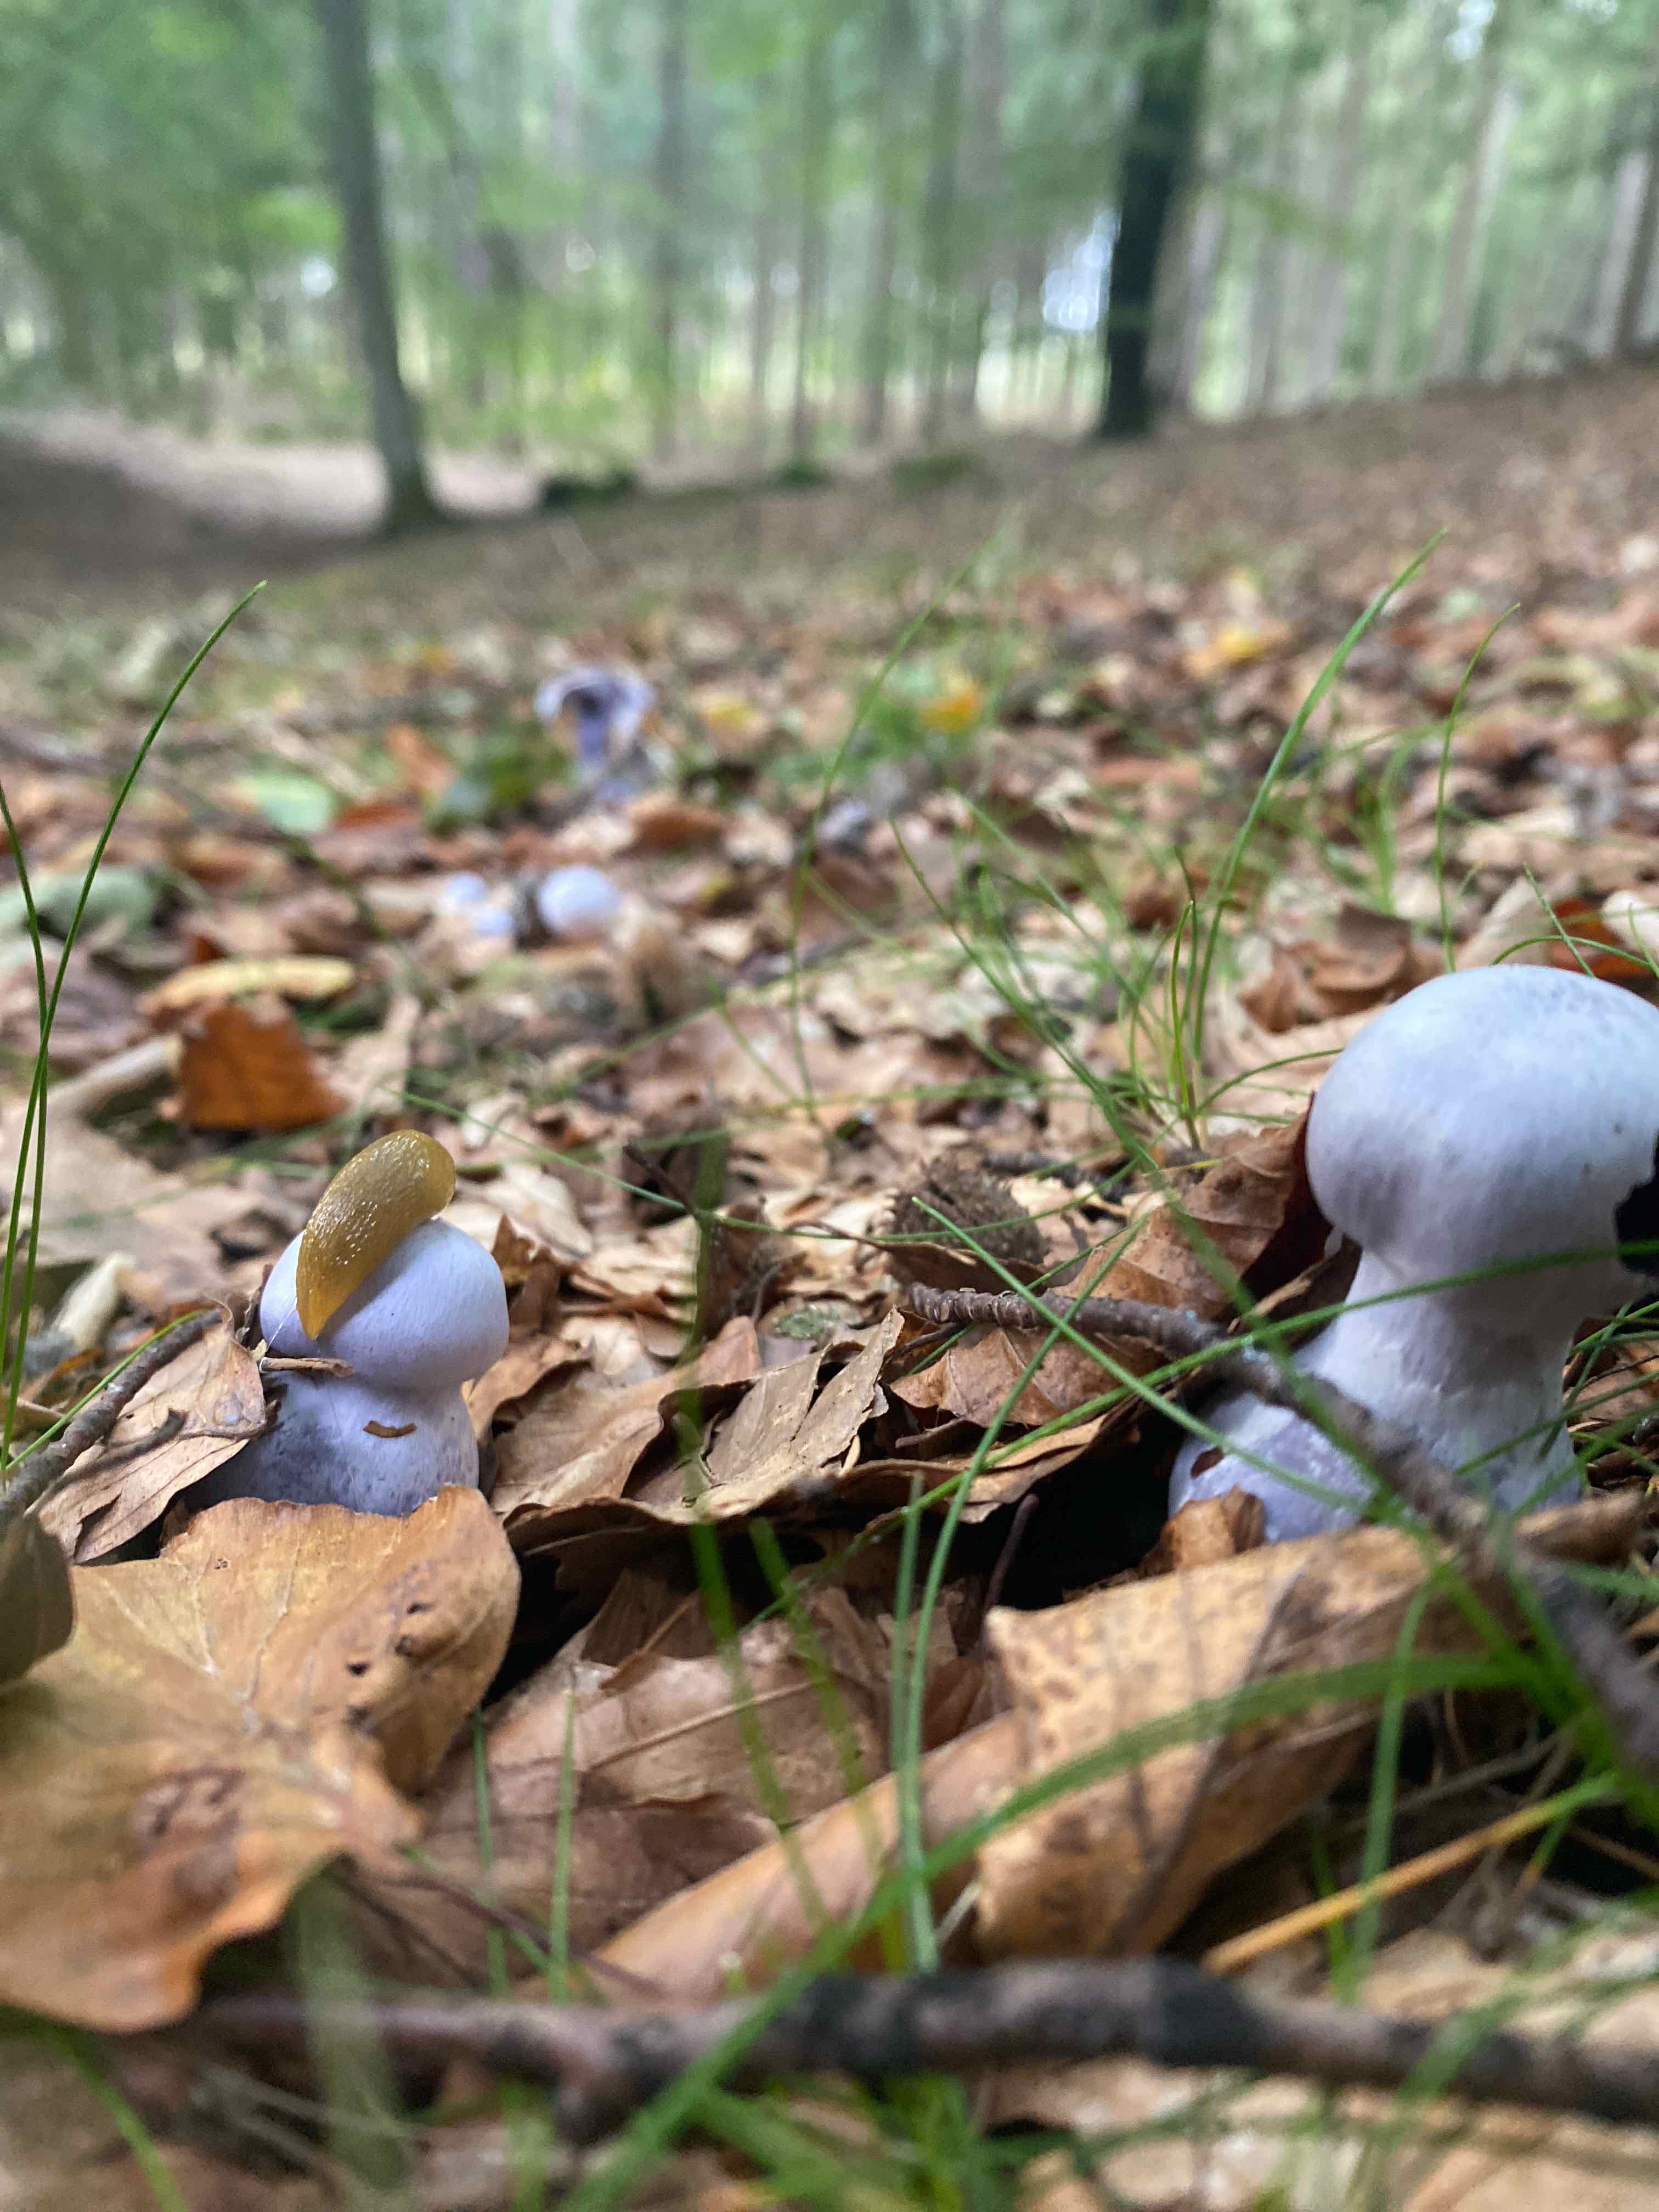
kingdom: Fungi
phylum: Basidiomycota
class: Agaricomycetes
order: Agaricales
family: Cortinariaceae
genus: Cortinarius
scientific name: Cortinarius alboviolaceus
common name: lysviolet slørhat
